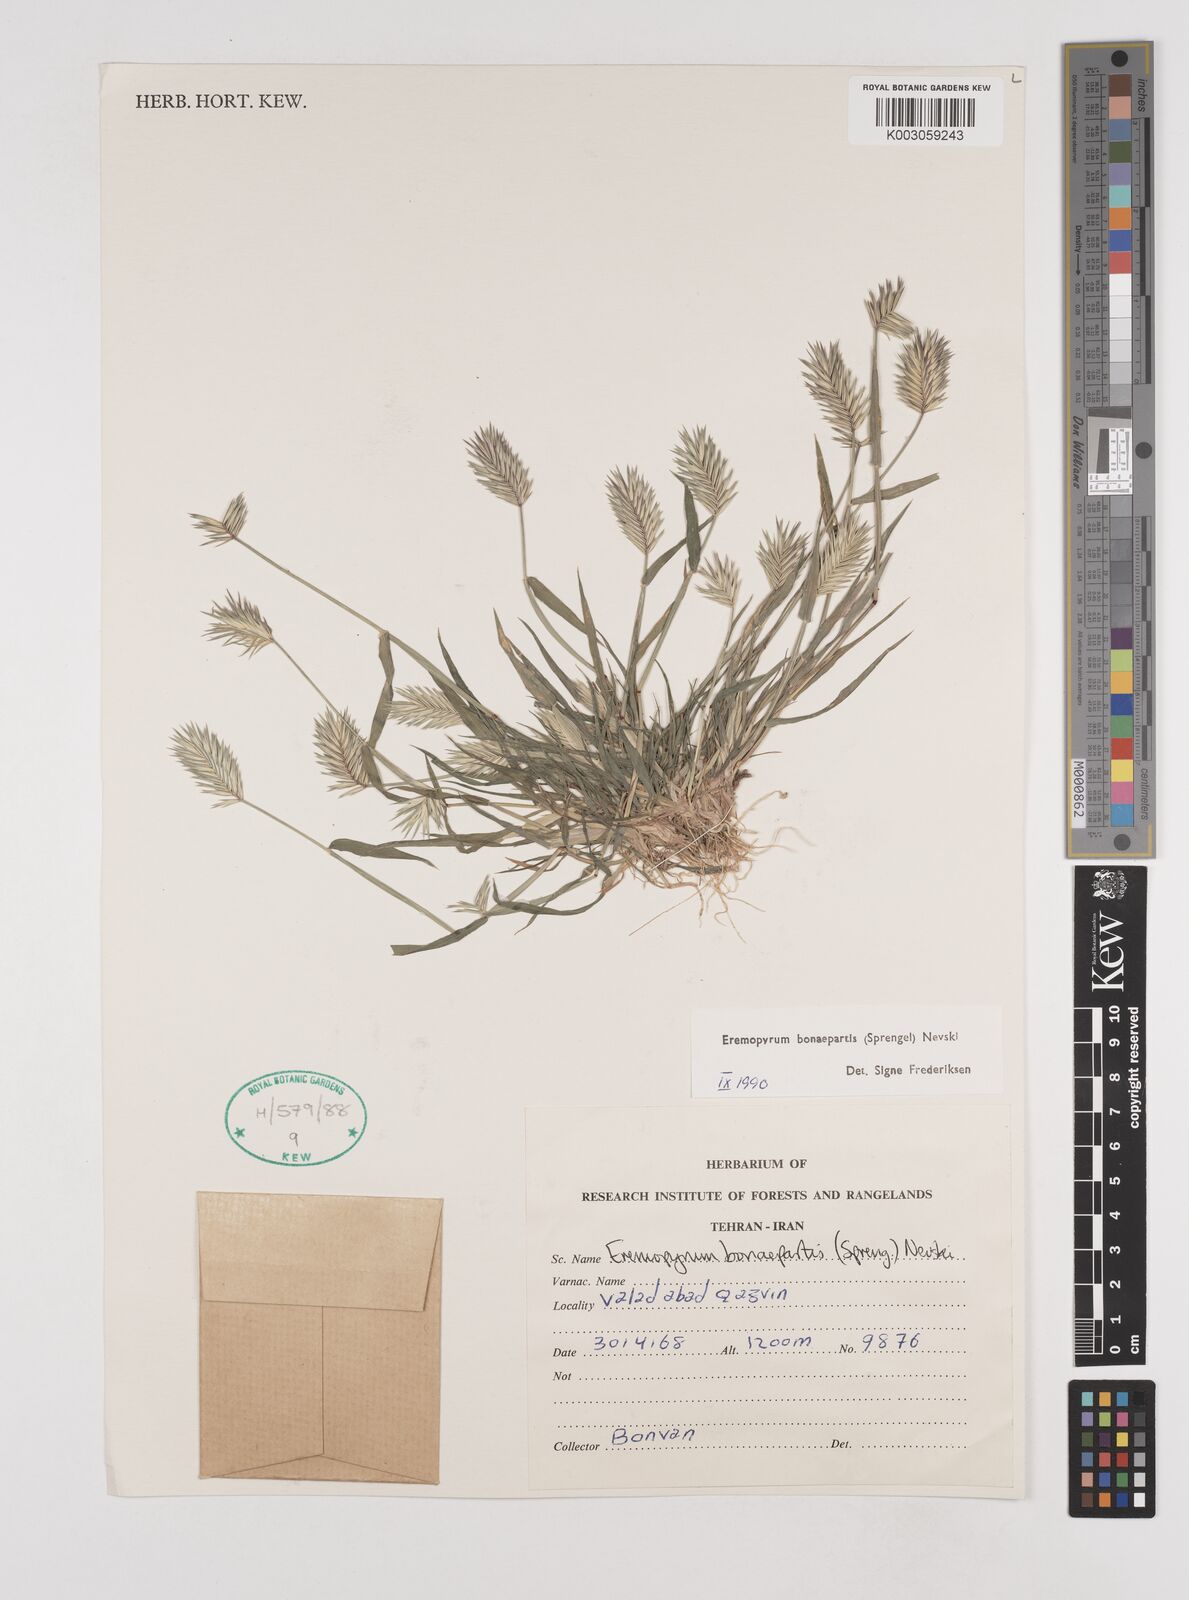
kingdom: Plantae
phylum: Tracheophyta
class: Liliopsida
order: Poales
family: Poaceae
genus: Eremopyrum
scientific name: Eremopyrum bonaepartis
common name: Tapertip false wheatgrass
